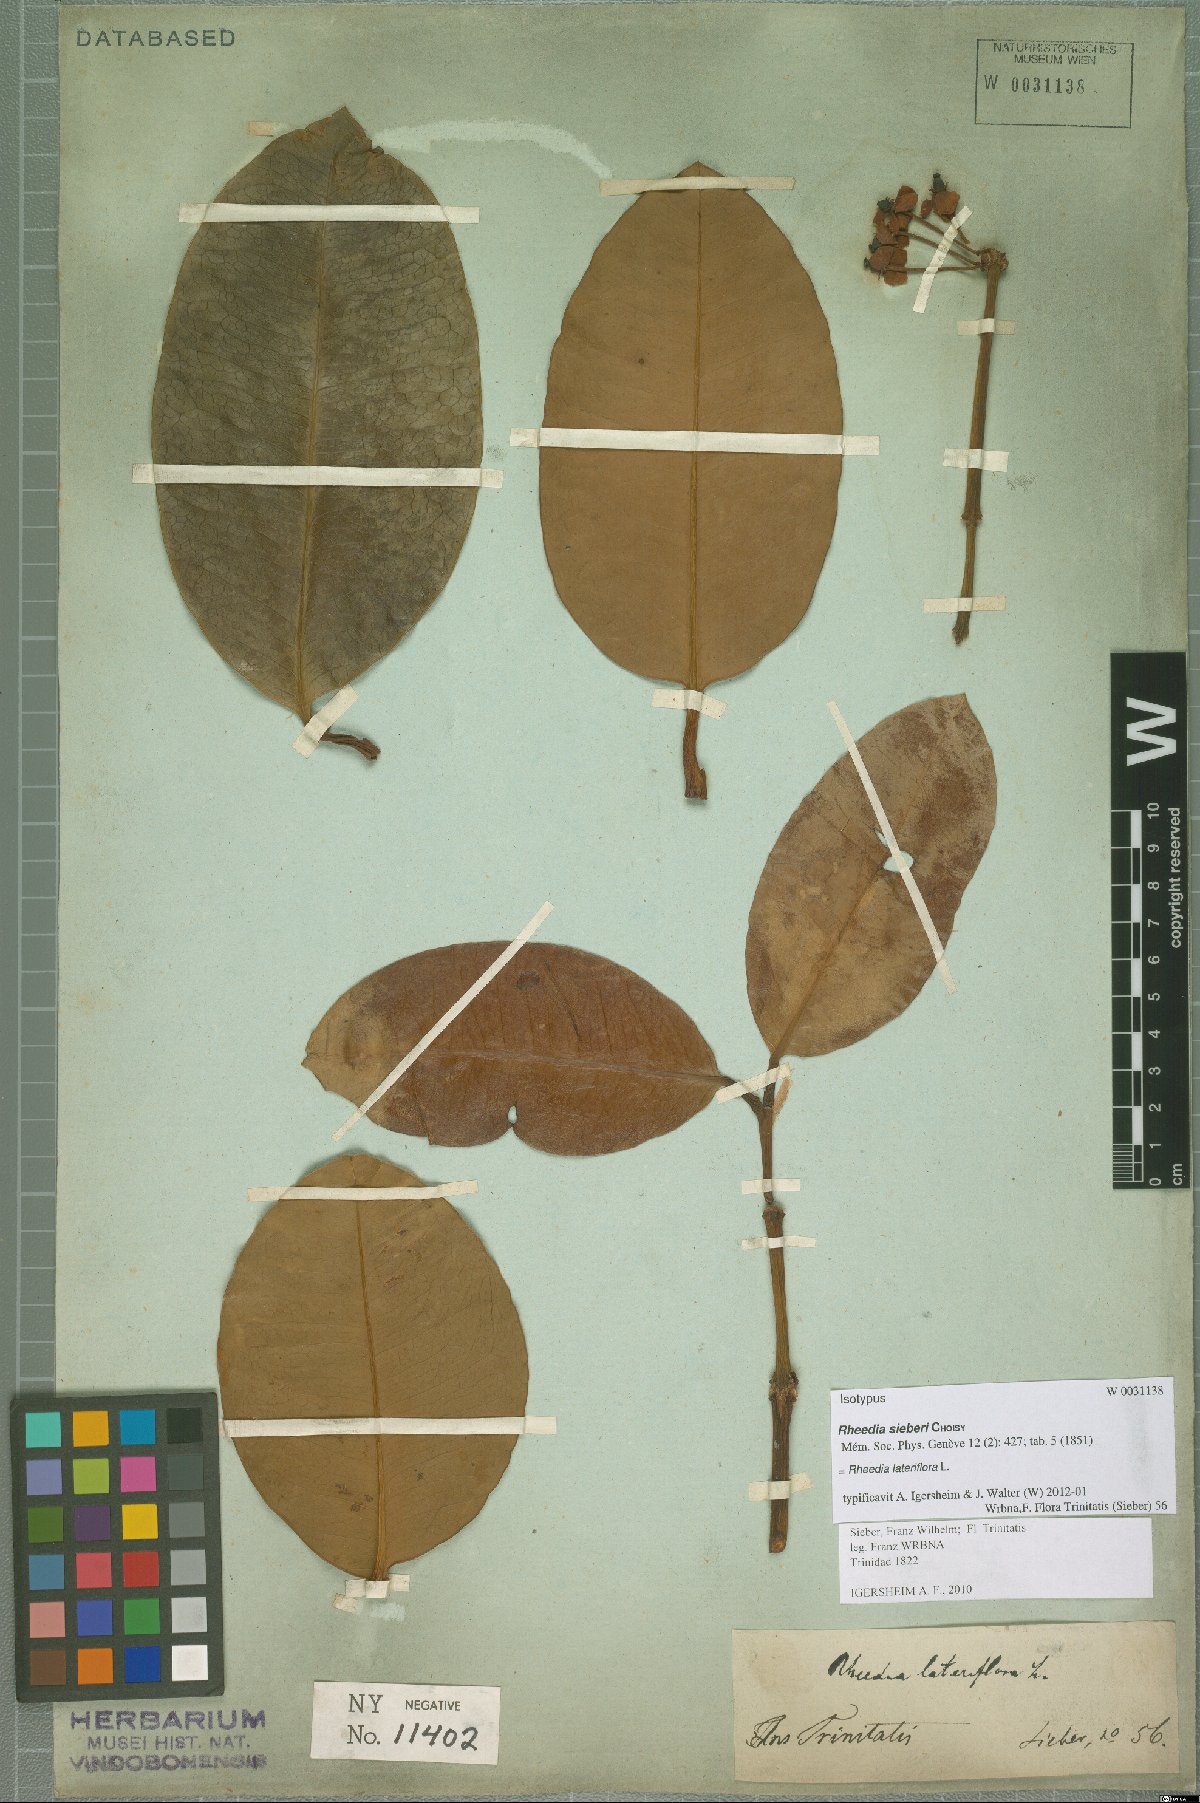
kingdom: Plantae
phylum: Tracheophyta
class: Magnoliopsida
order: Malpighiales
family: Clusiaceae
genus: Garcinia
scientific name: Garcinia humilis
